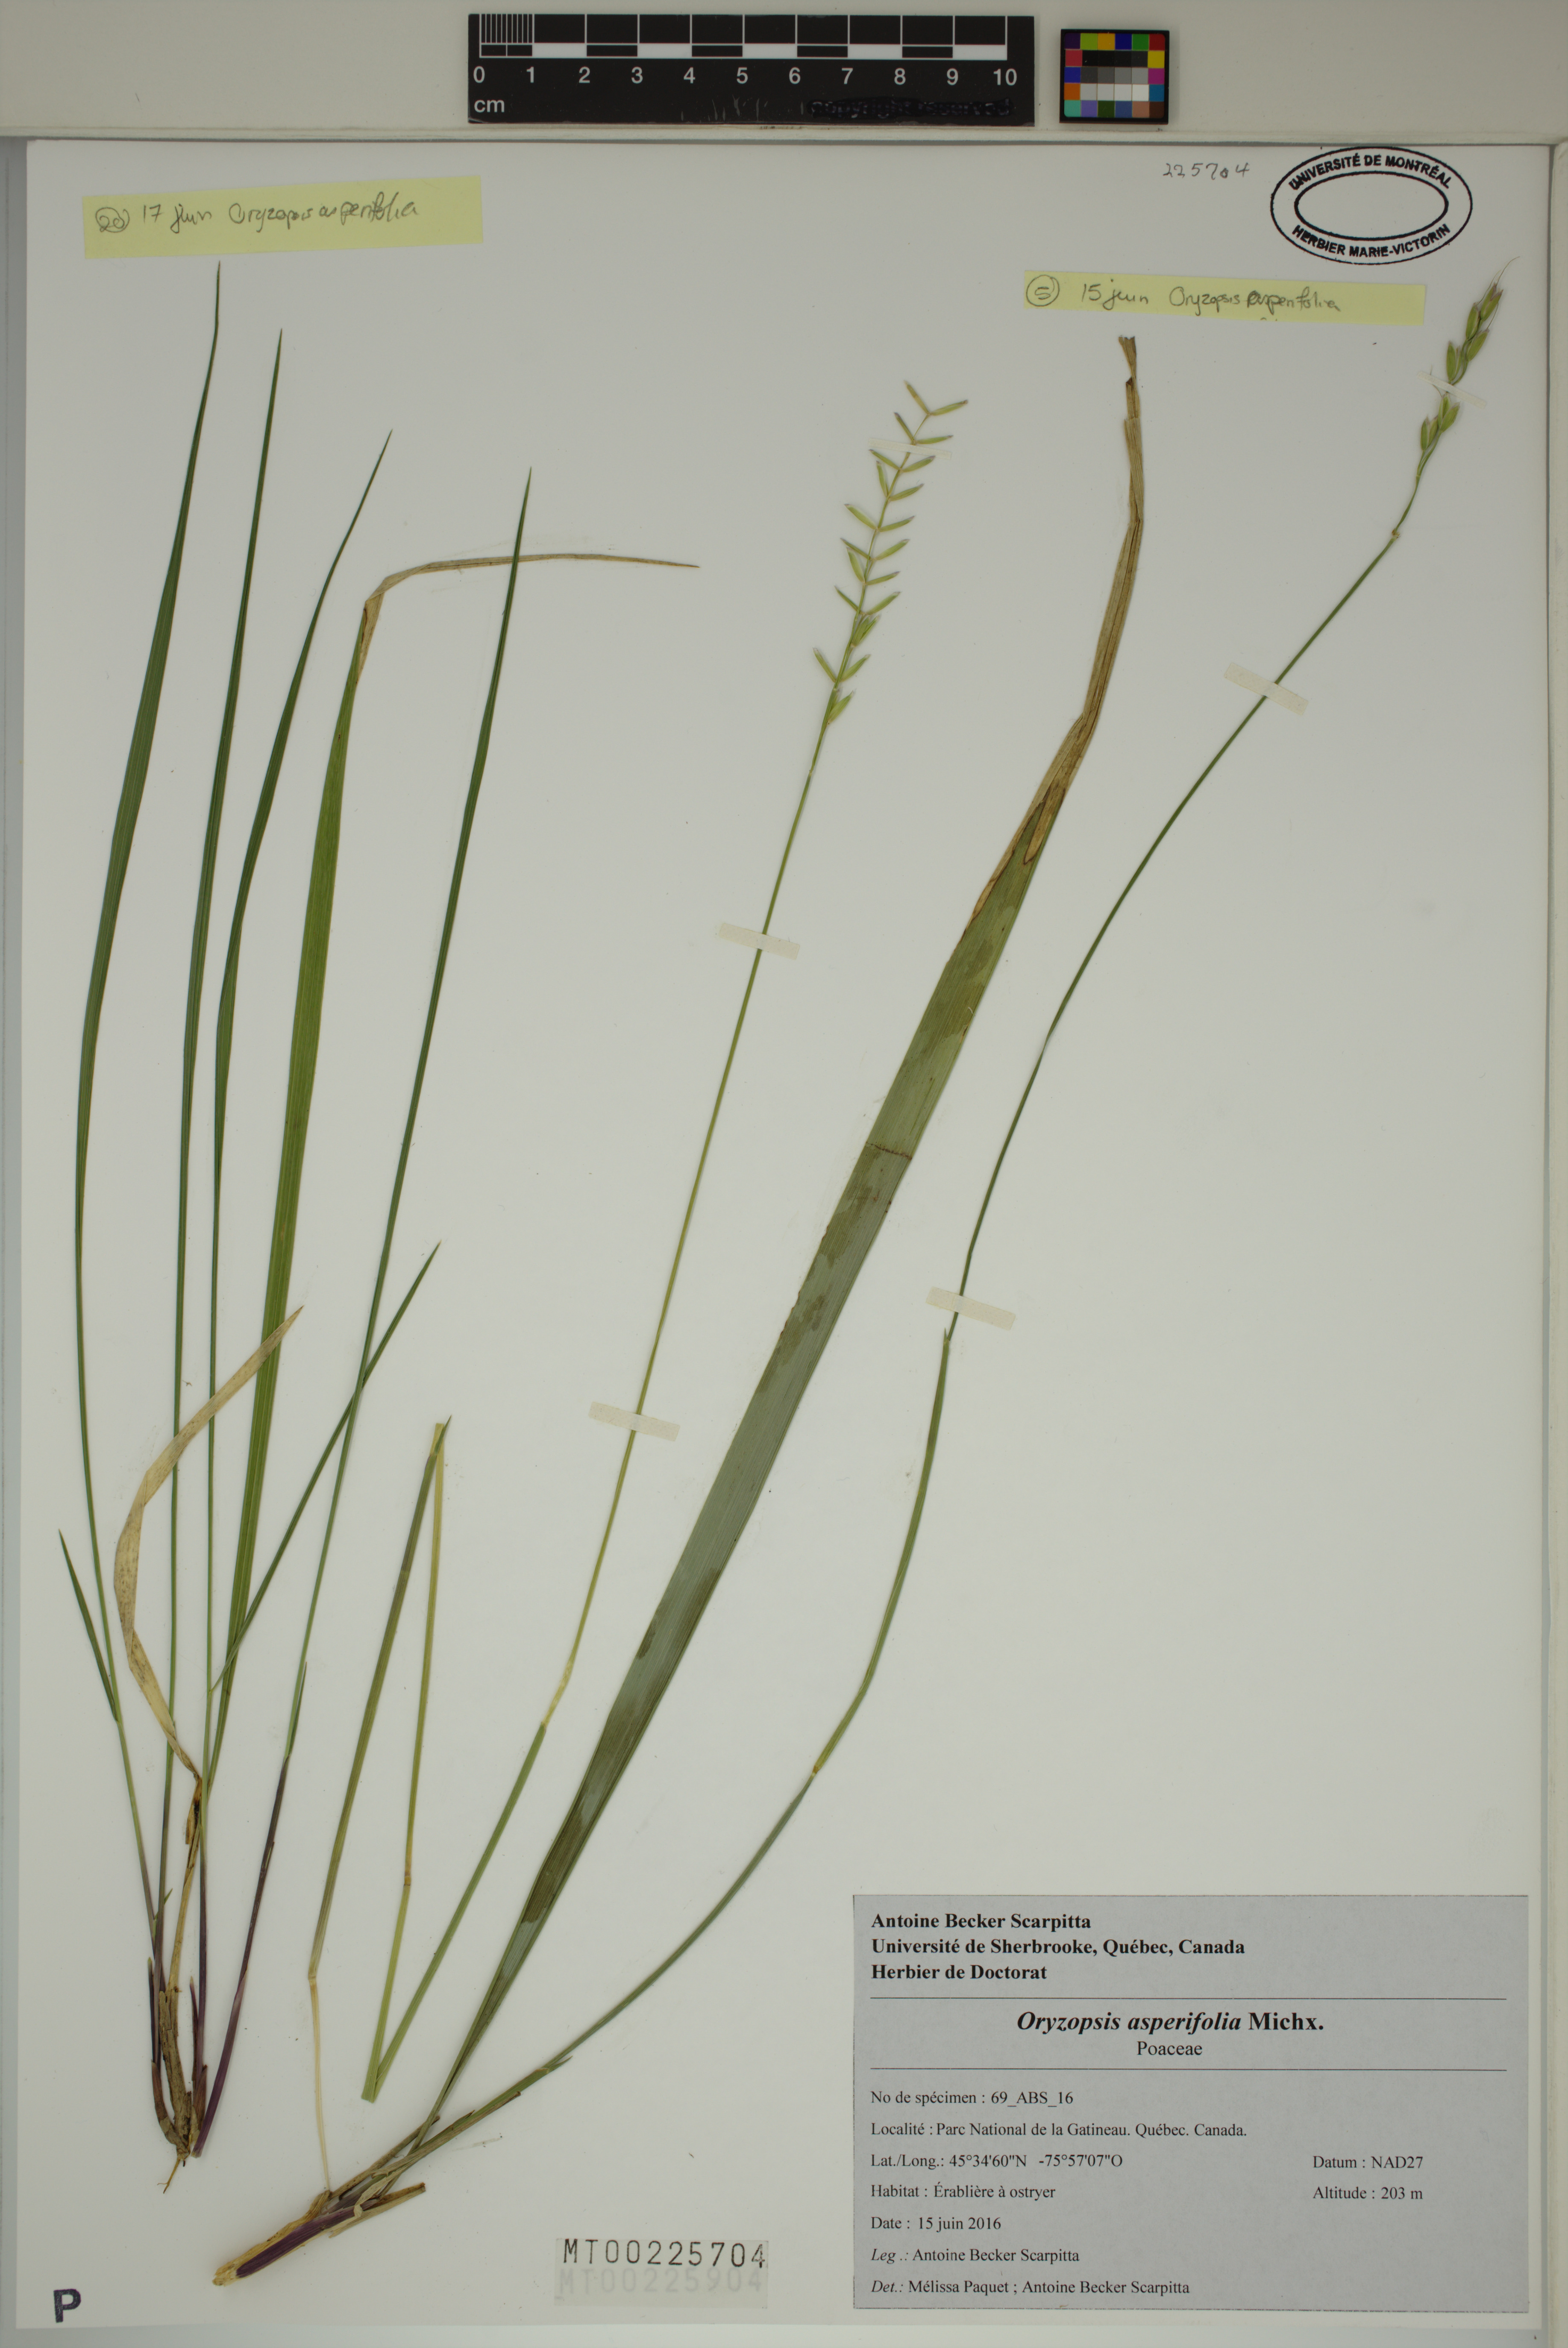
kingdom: Plantae
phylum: Tracheophyta
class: Liliopsida
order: Poales
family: Poaceae
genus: Oryzopsis
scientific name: Oryzopsis asperifolia
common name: Rough-leaved mountain rice
